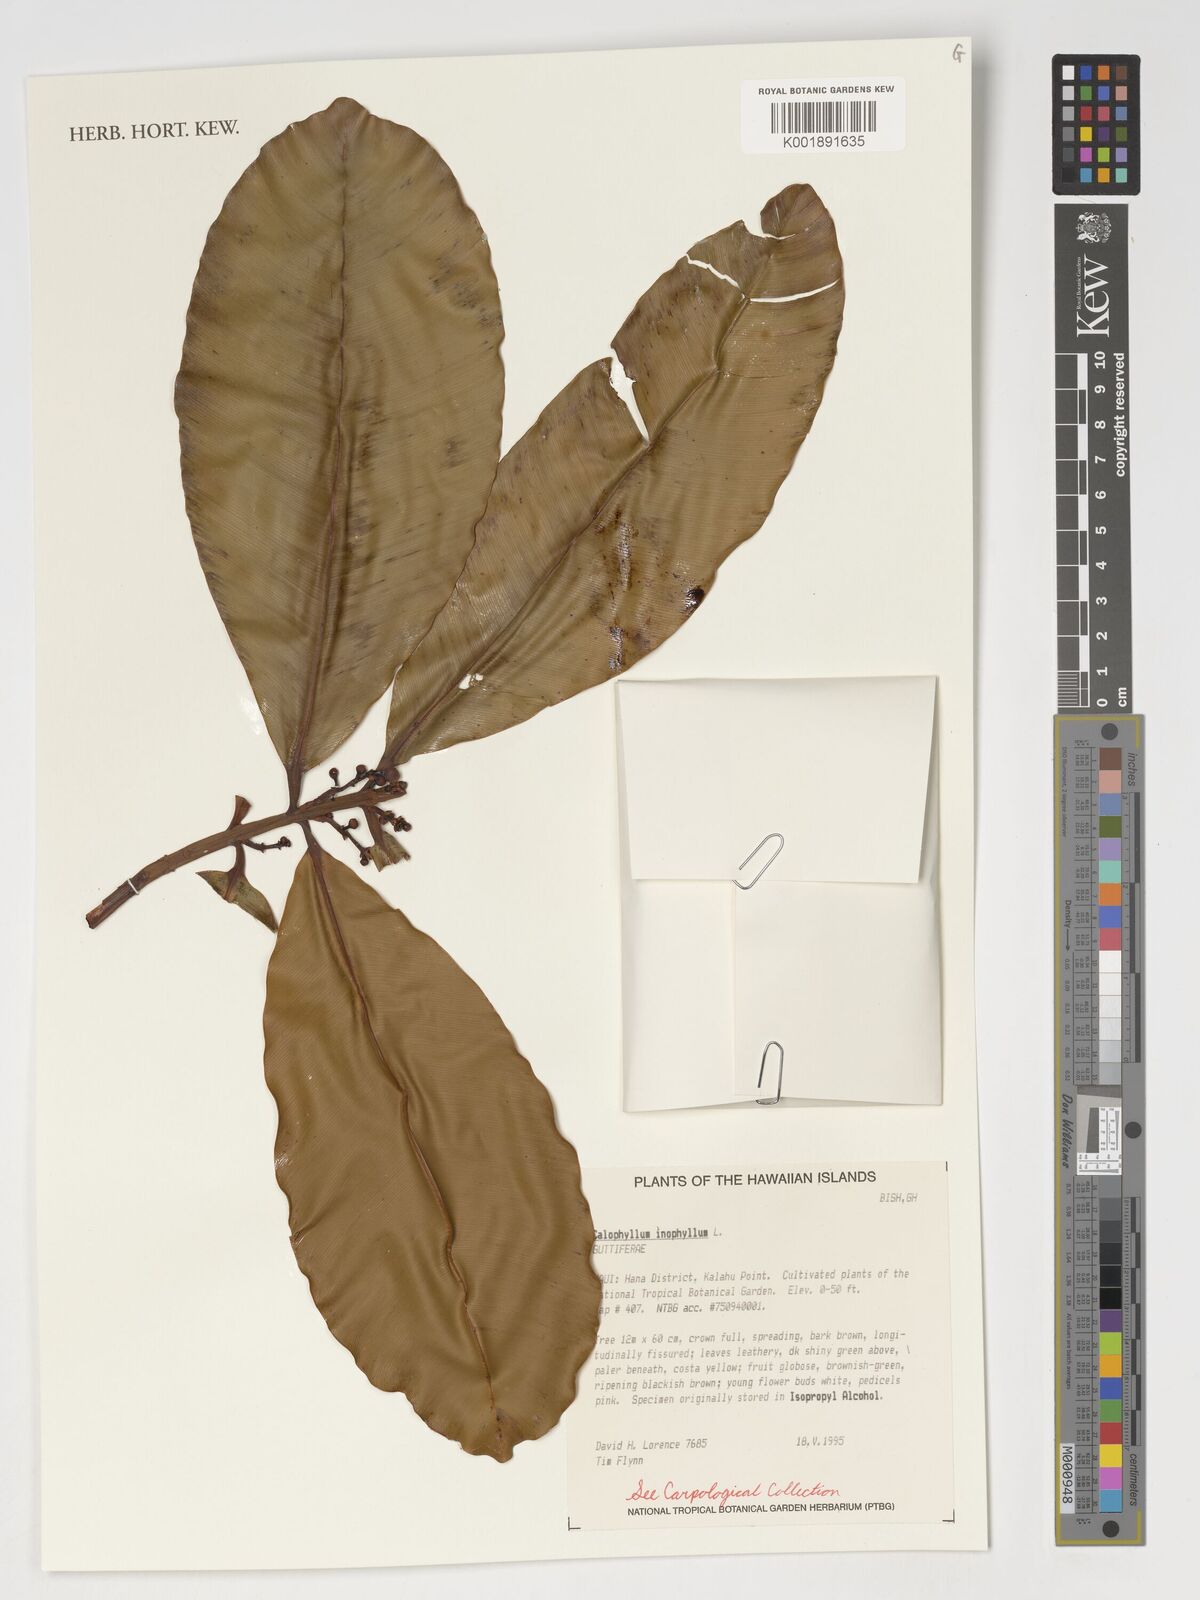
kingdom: Plantae
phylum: Tracheophyta
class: Magnoliopsida
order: Malpighiales
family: Calophyllaceae
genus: Calophyllum
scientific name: Calophyllum inophyllum
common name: Alexandrian laurel
